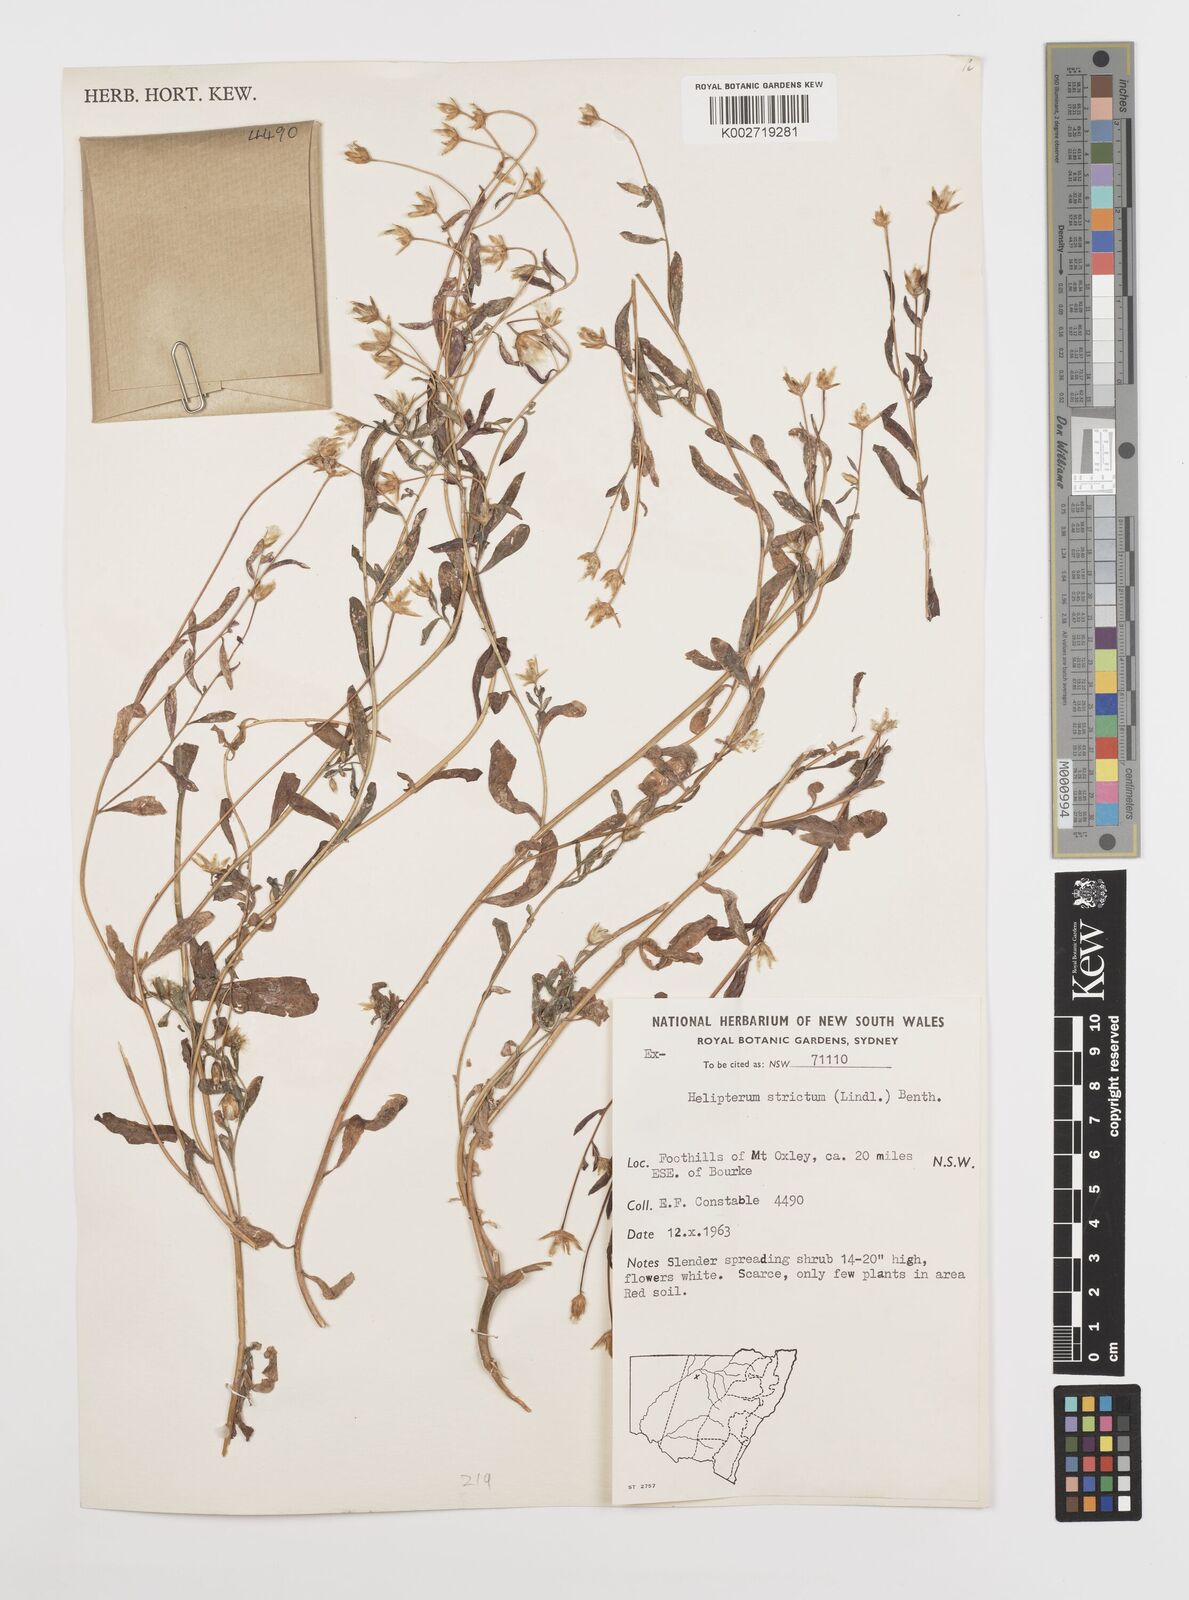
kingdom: Plantae
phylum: Tracheophyta
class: Magnoliopsida
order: Asterales
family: Asteraceae
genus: Rhodanthe
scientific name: Rhodanthe stricta
